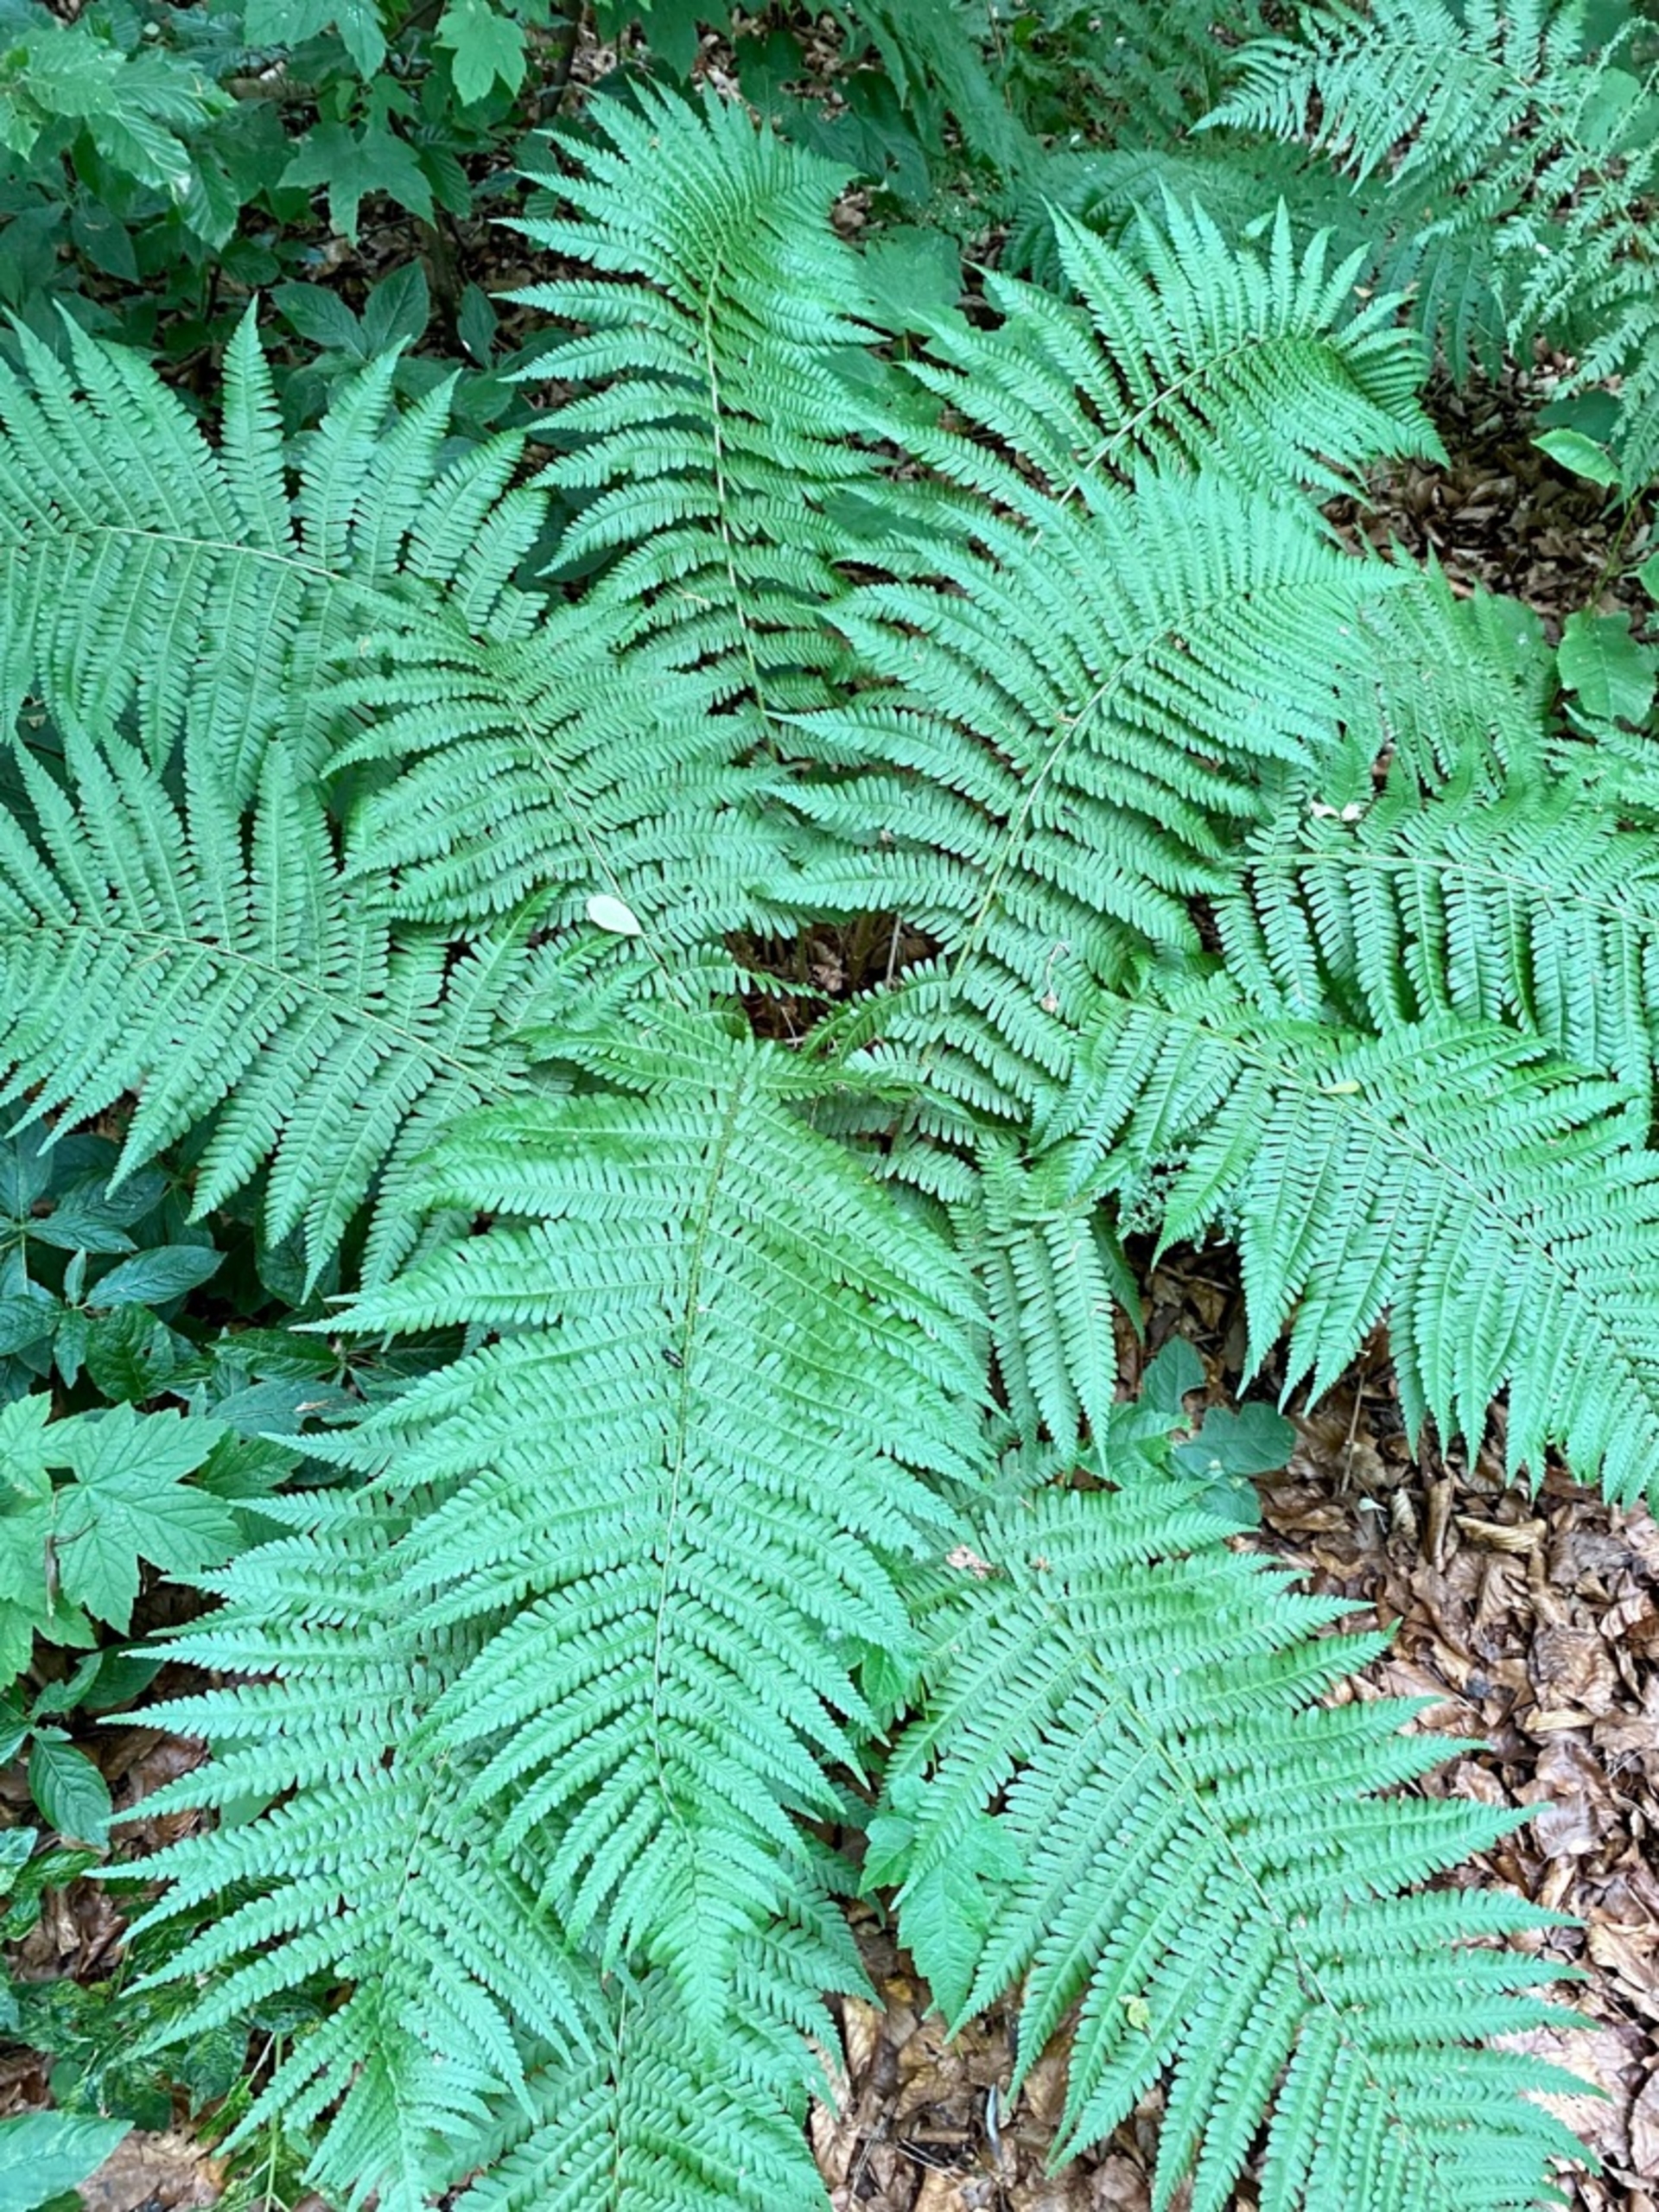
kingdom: Plantae
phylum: Tracheophyta
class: Polypodiopsida
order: Polypodiales
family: Dryopteridaceae
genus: Dryopteris
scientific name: Dryopteris filix-mas
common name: Almindelig mangeløv
